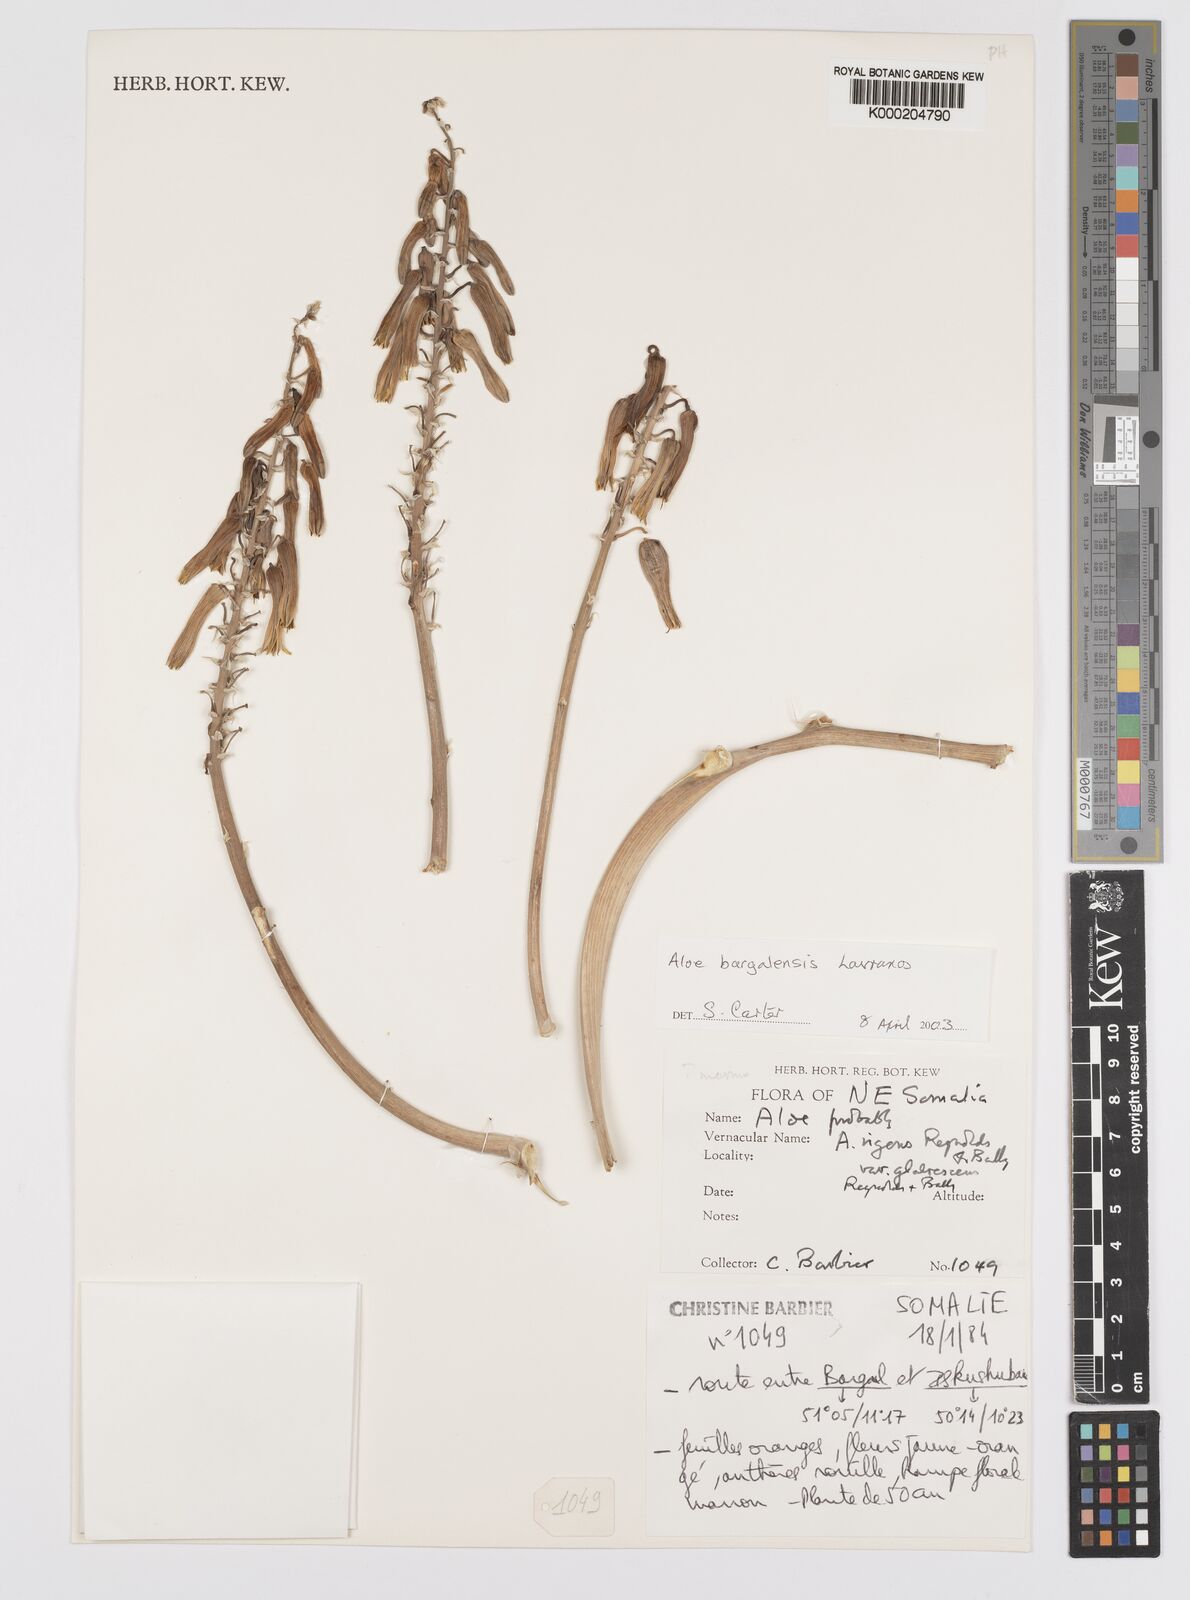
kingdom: Plantae
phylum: Tracheophyta
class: Liliopsida
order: Asparagales
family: Asphodelaceae
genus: Aloe
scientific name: Aloe bargalensis
